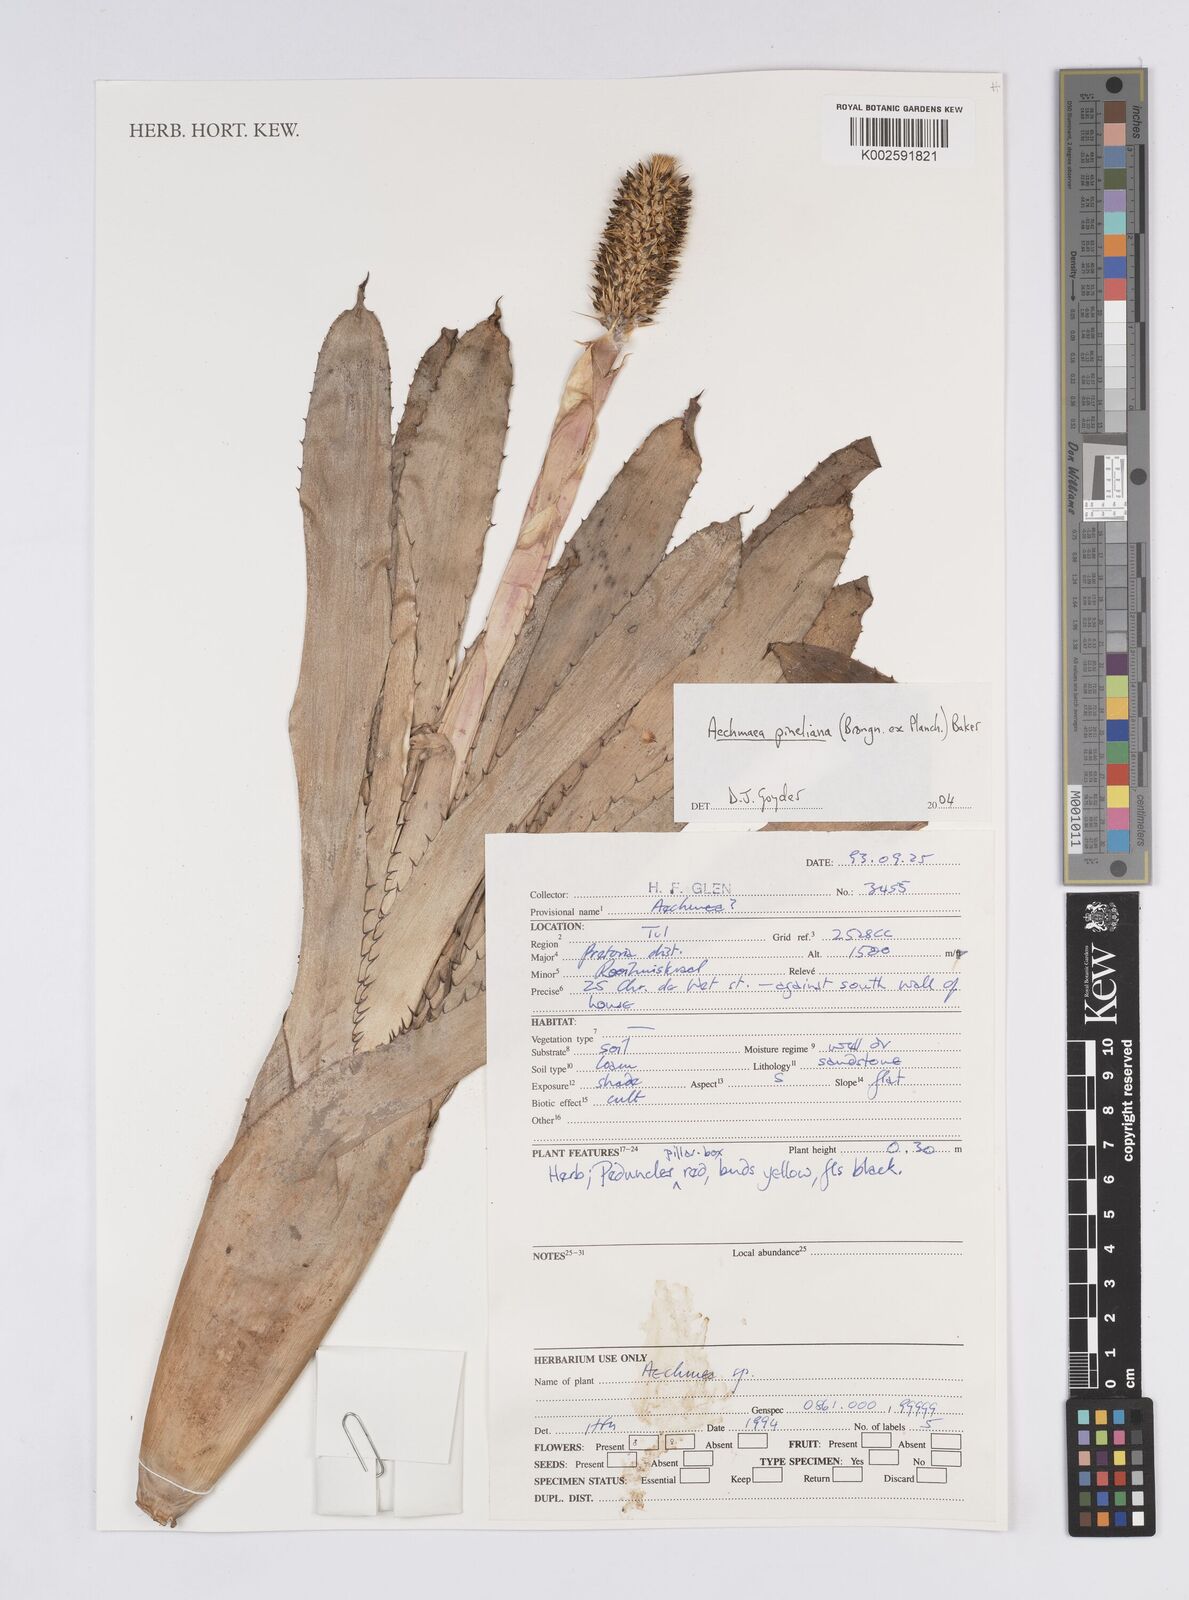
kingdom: Plantae
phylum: Tracheophyta
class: Liliopsida
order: Poales
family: Bromeliaceae
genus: Aechmea
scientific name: Aechmea pineliana
